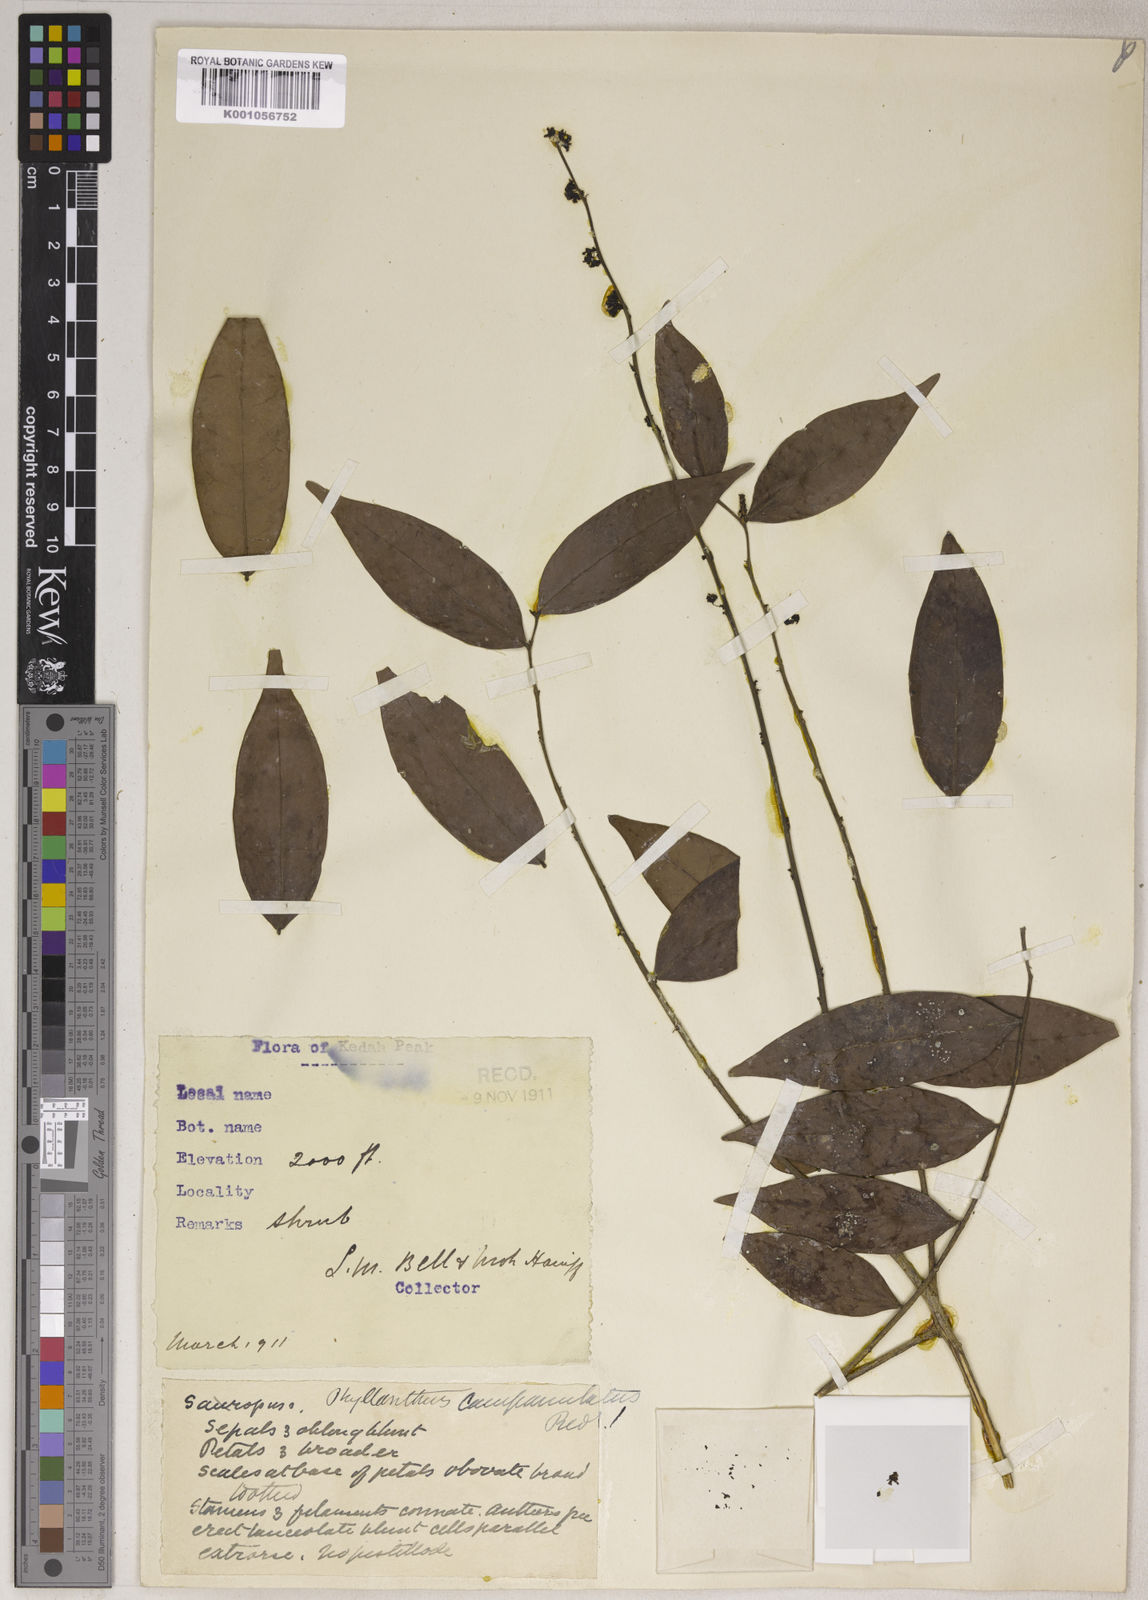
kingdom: Plantae
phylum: Tracheophyta
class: Magnoliopsida
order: Malpighiales
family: Phyllanthaceae
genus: Phyllanthus
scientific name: Phyllanthus
